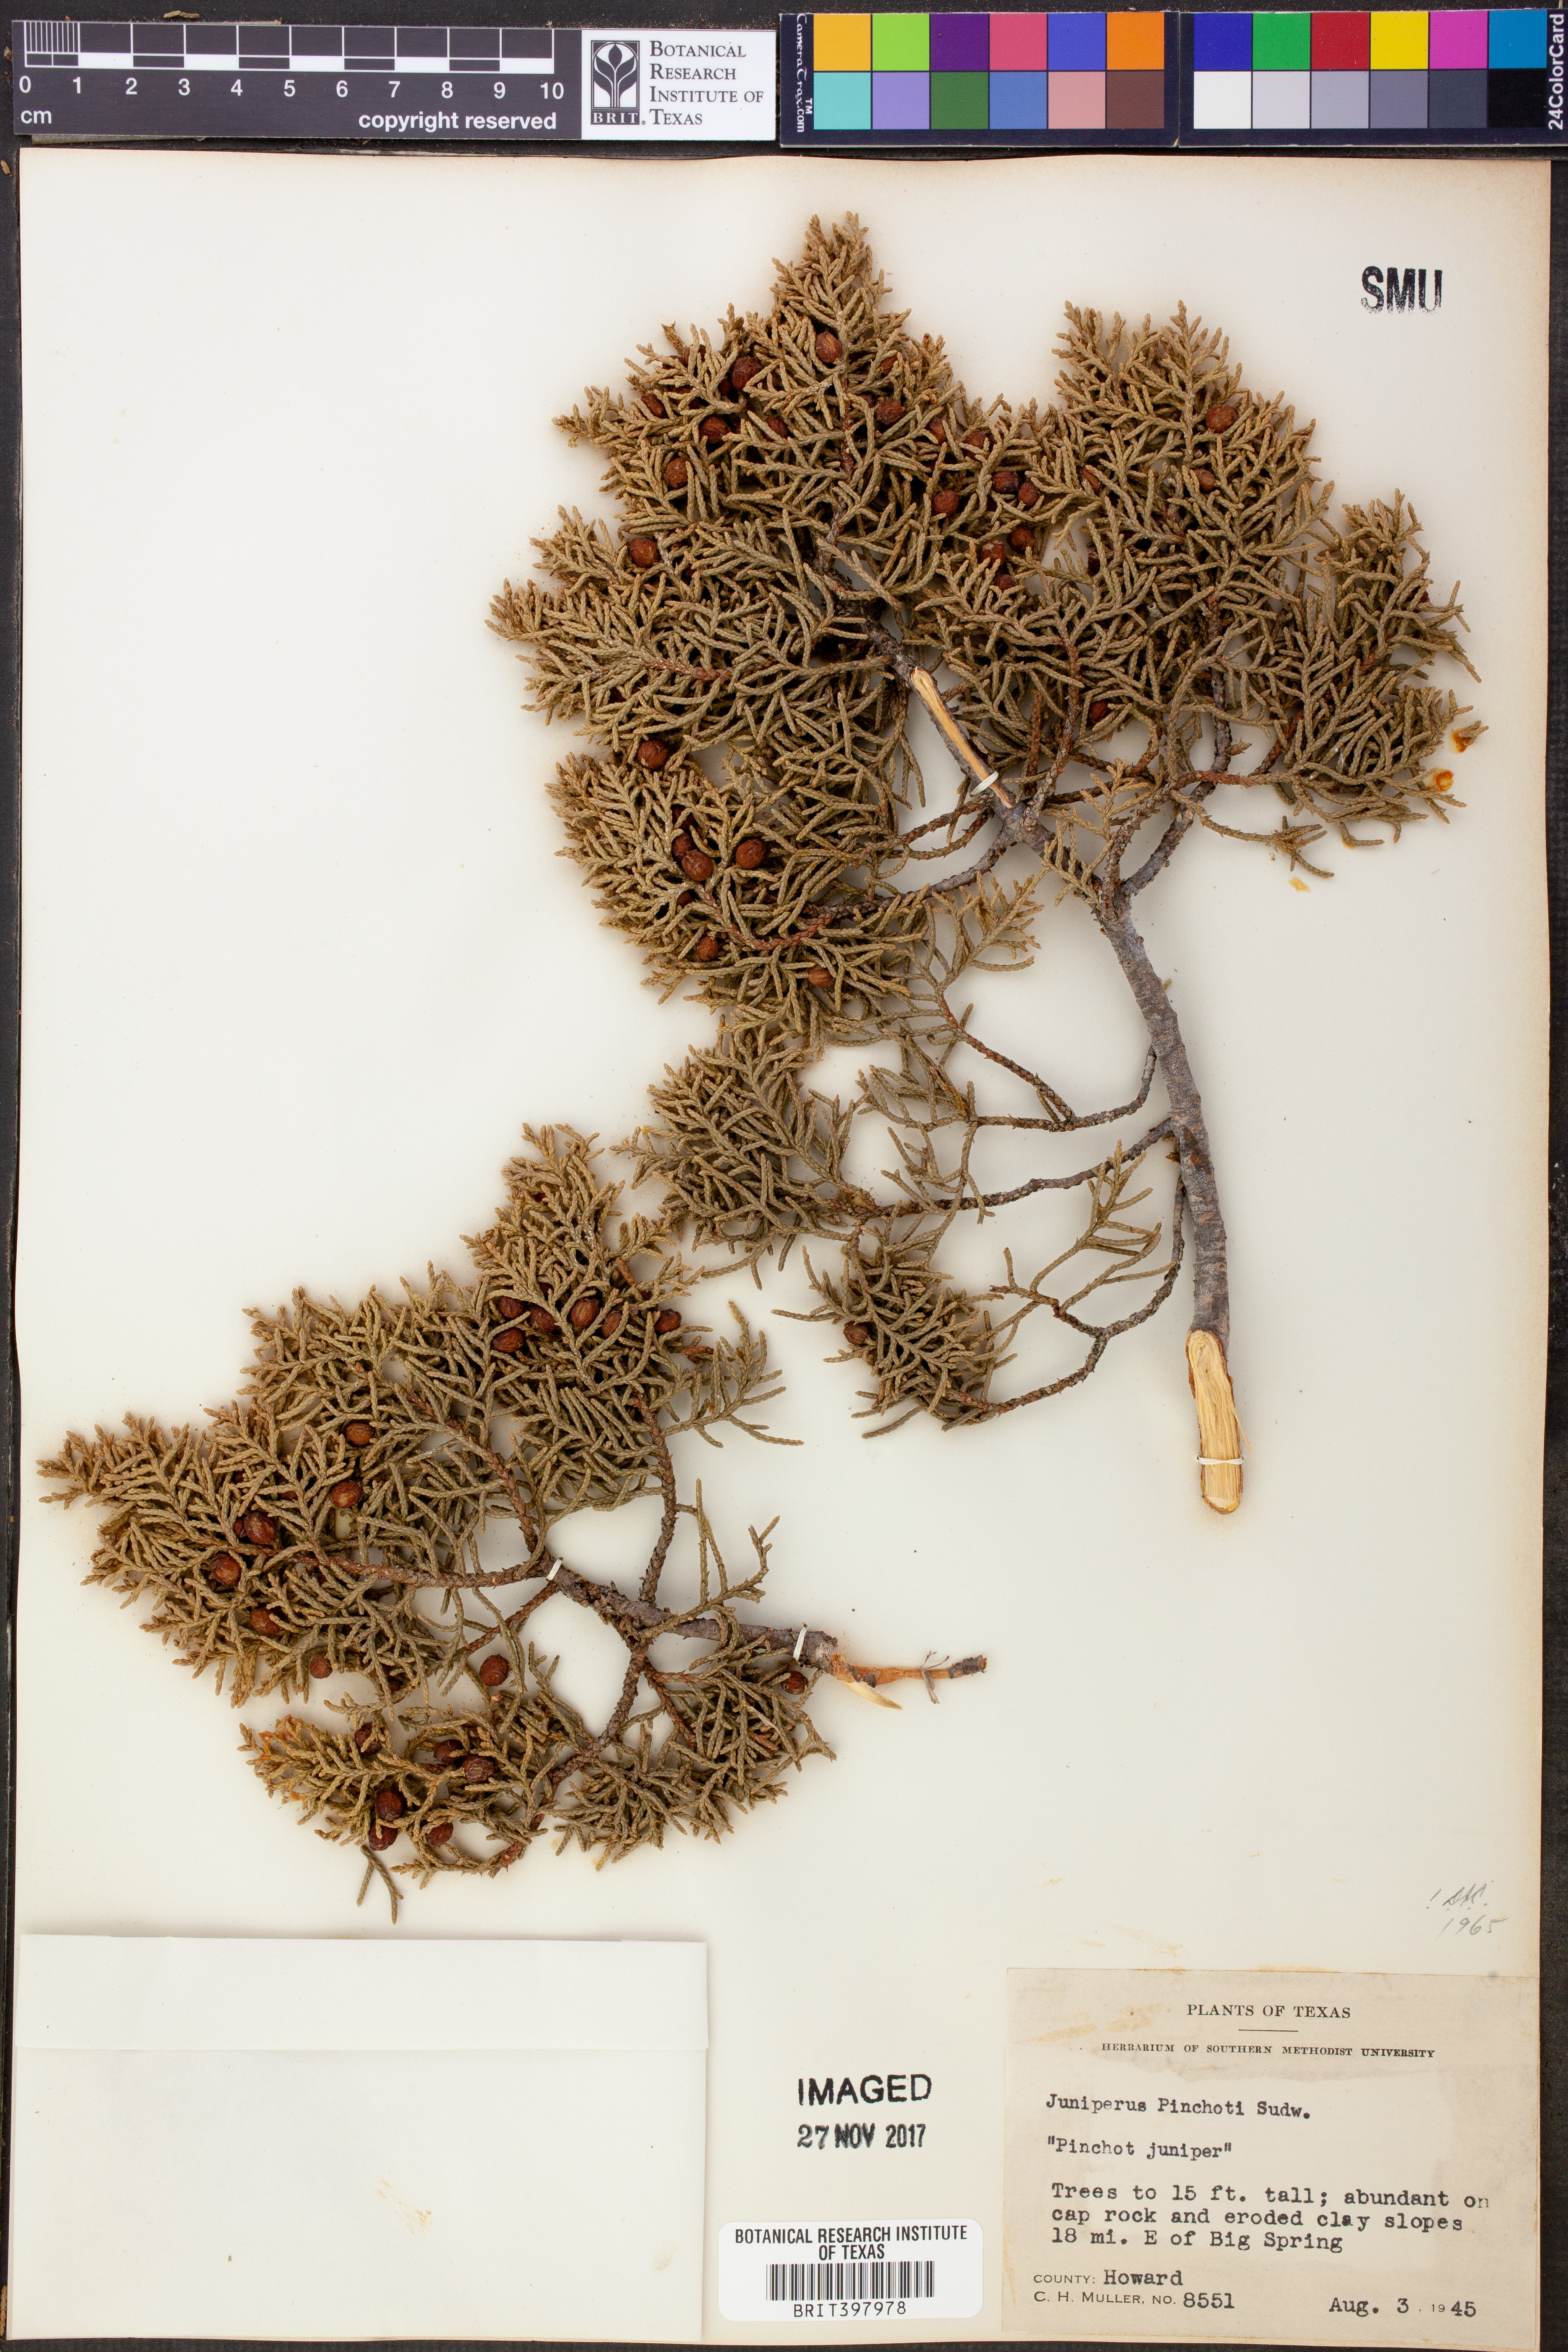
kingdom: Plantae
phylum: Tracheophyta
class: Pinopsida
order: Pinales
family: Cupressaceae
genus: Juniperus
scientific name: Juniperus pinchotii
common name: Pinchot juniper
